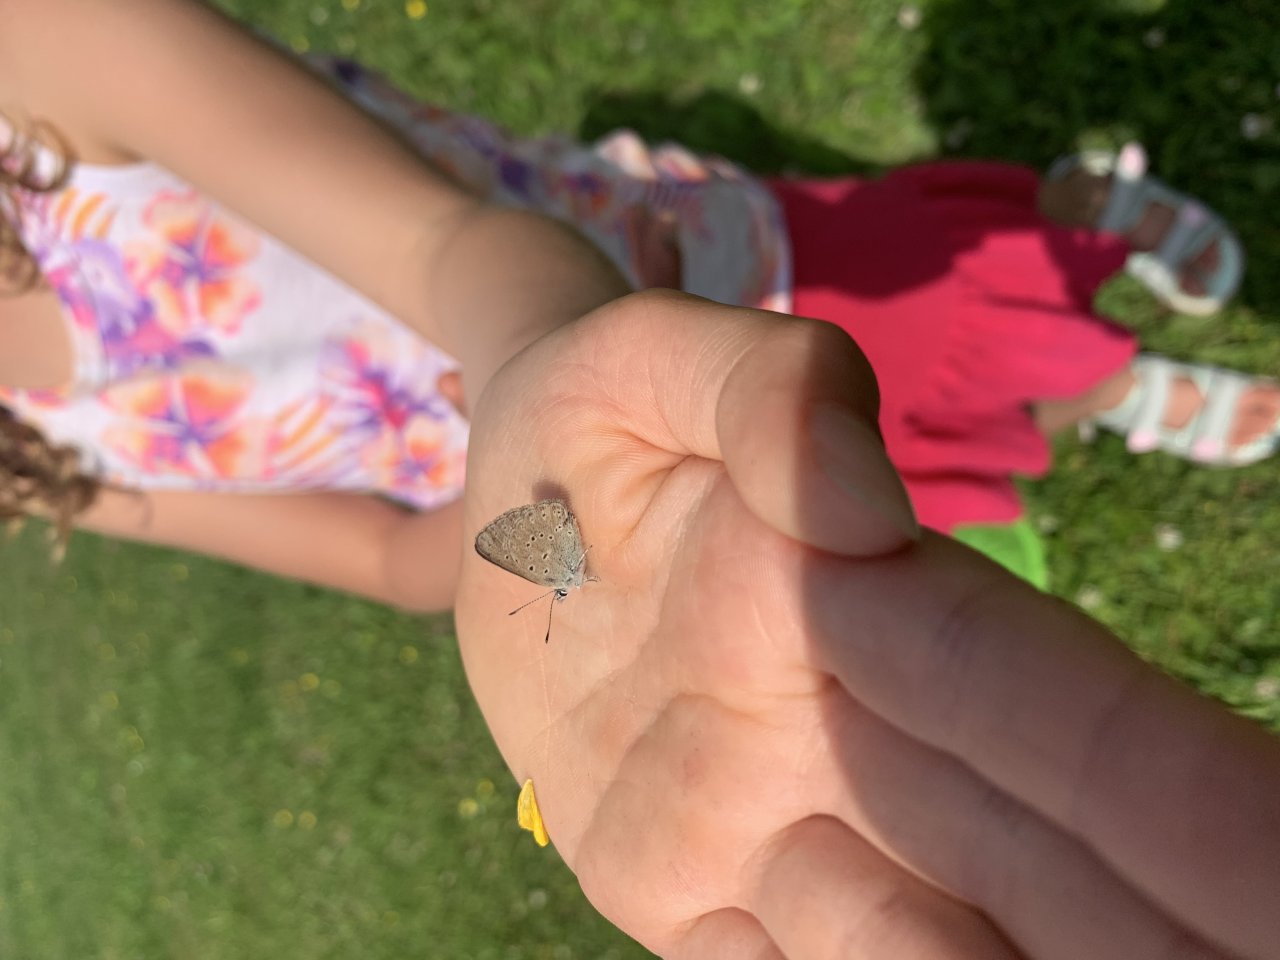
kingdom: Animalia
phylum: Arthropoda
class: Insecta
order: Lepidoptera
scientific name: Lepidoptera
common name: Butterflies
